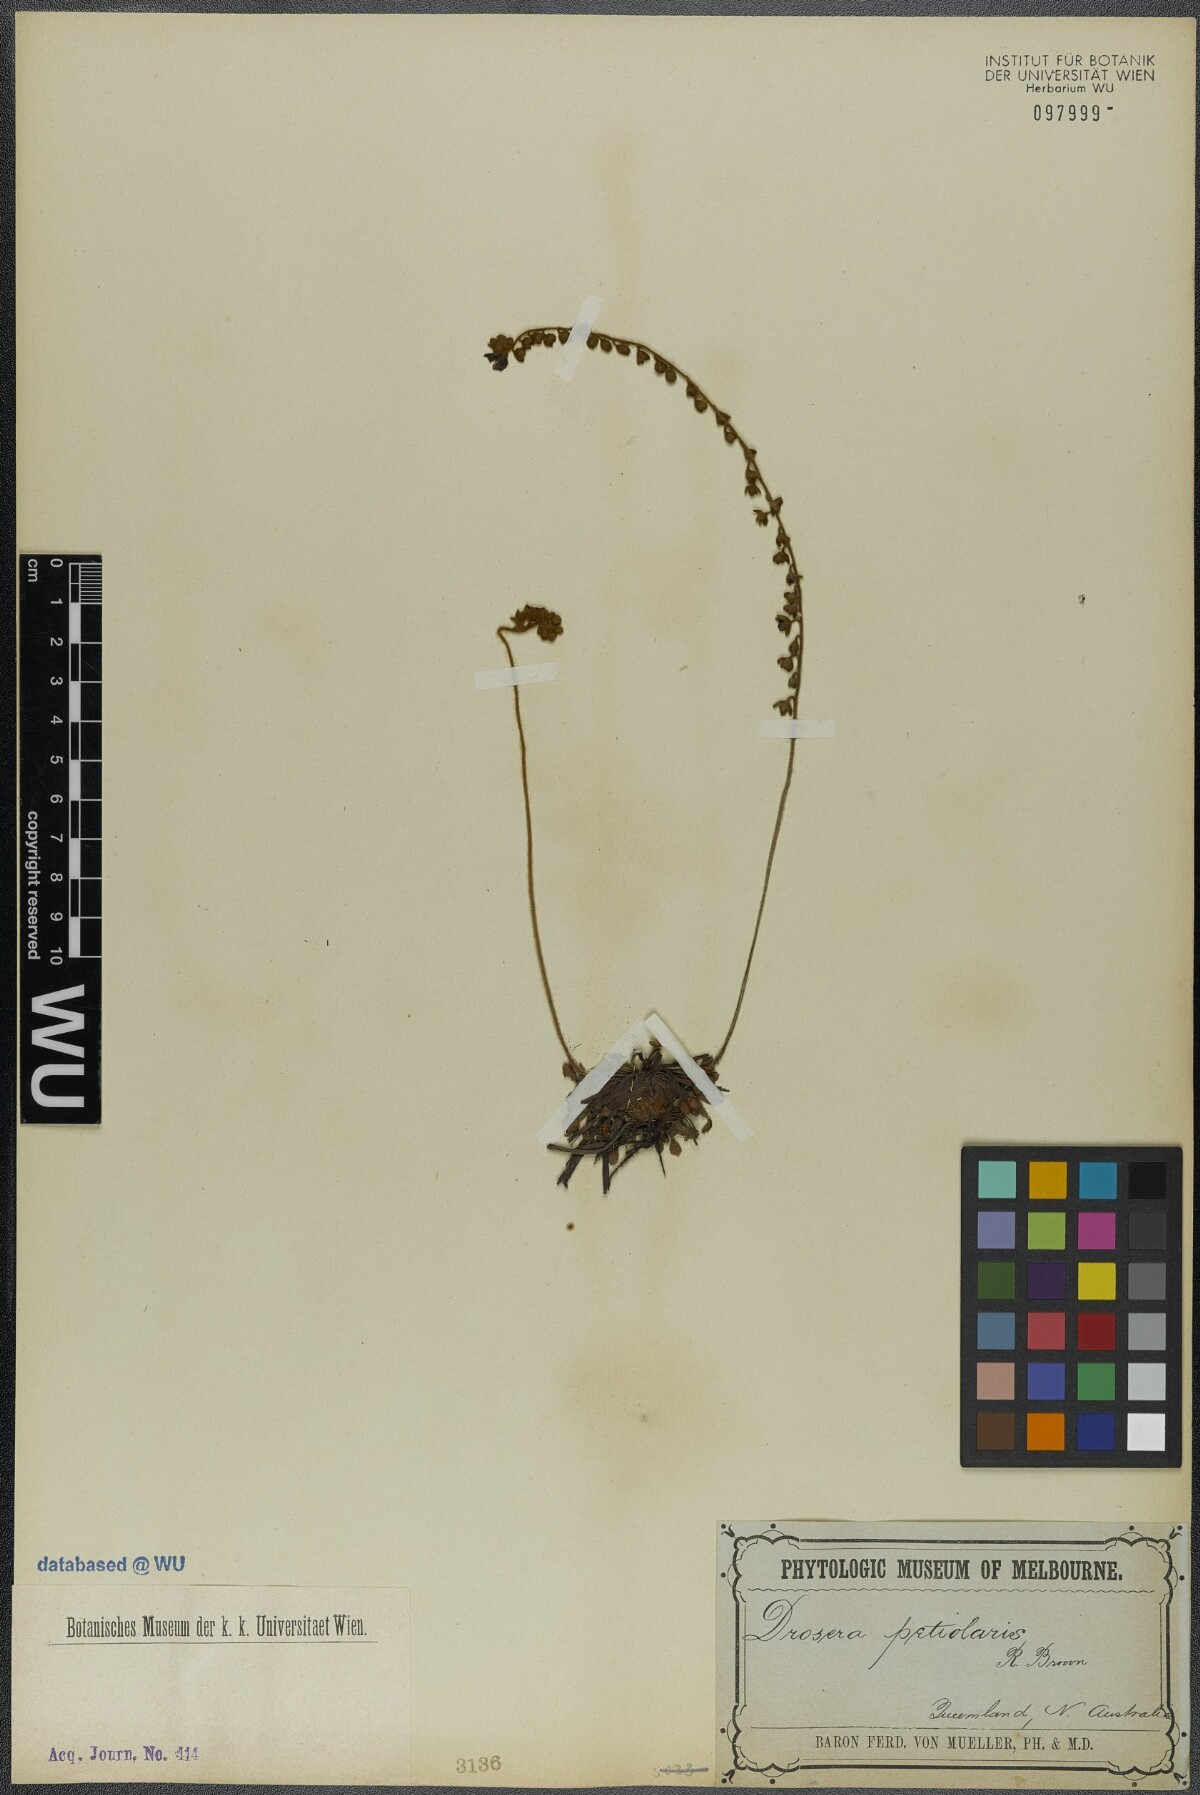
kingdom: Plantae
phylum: Tracheophyta
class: Magnoliopsida
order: Caryophyllales
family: Droseraceae
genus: Drosera
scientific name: Drosera petiolaris
